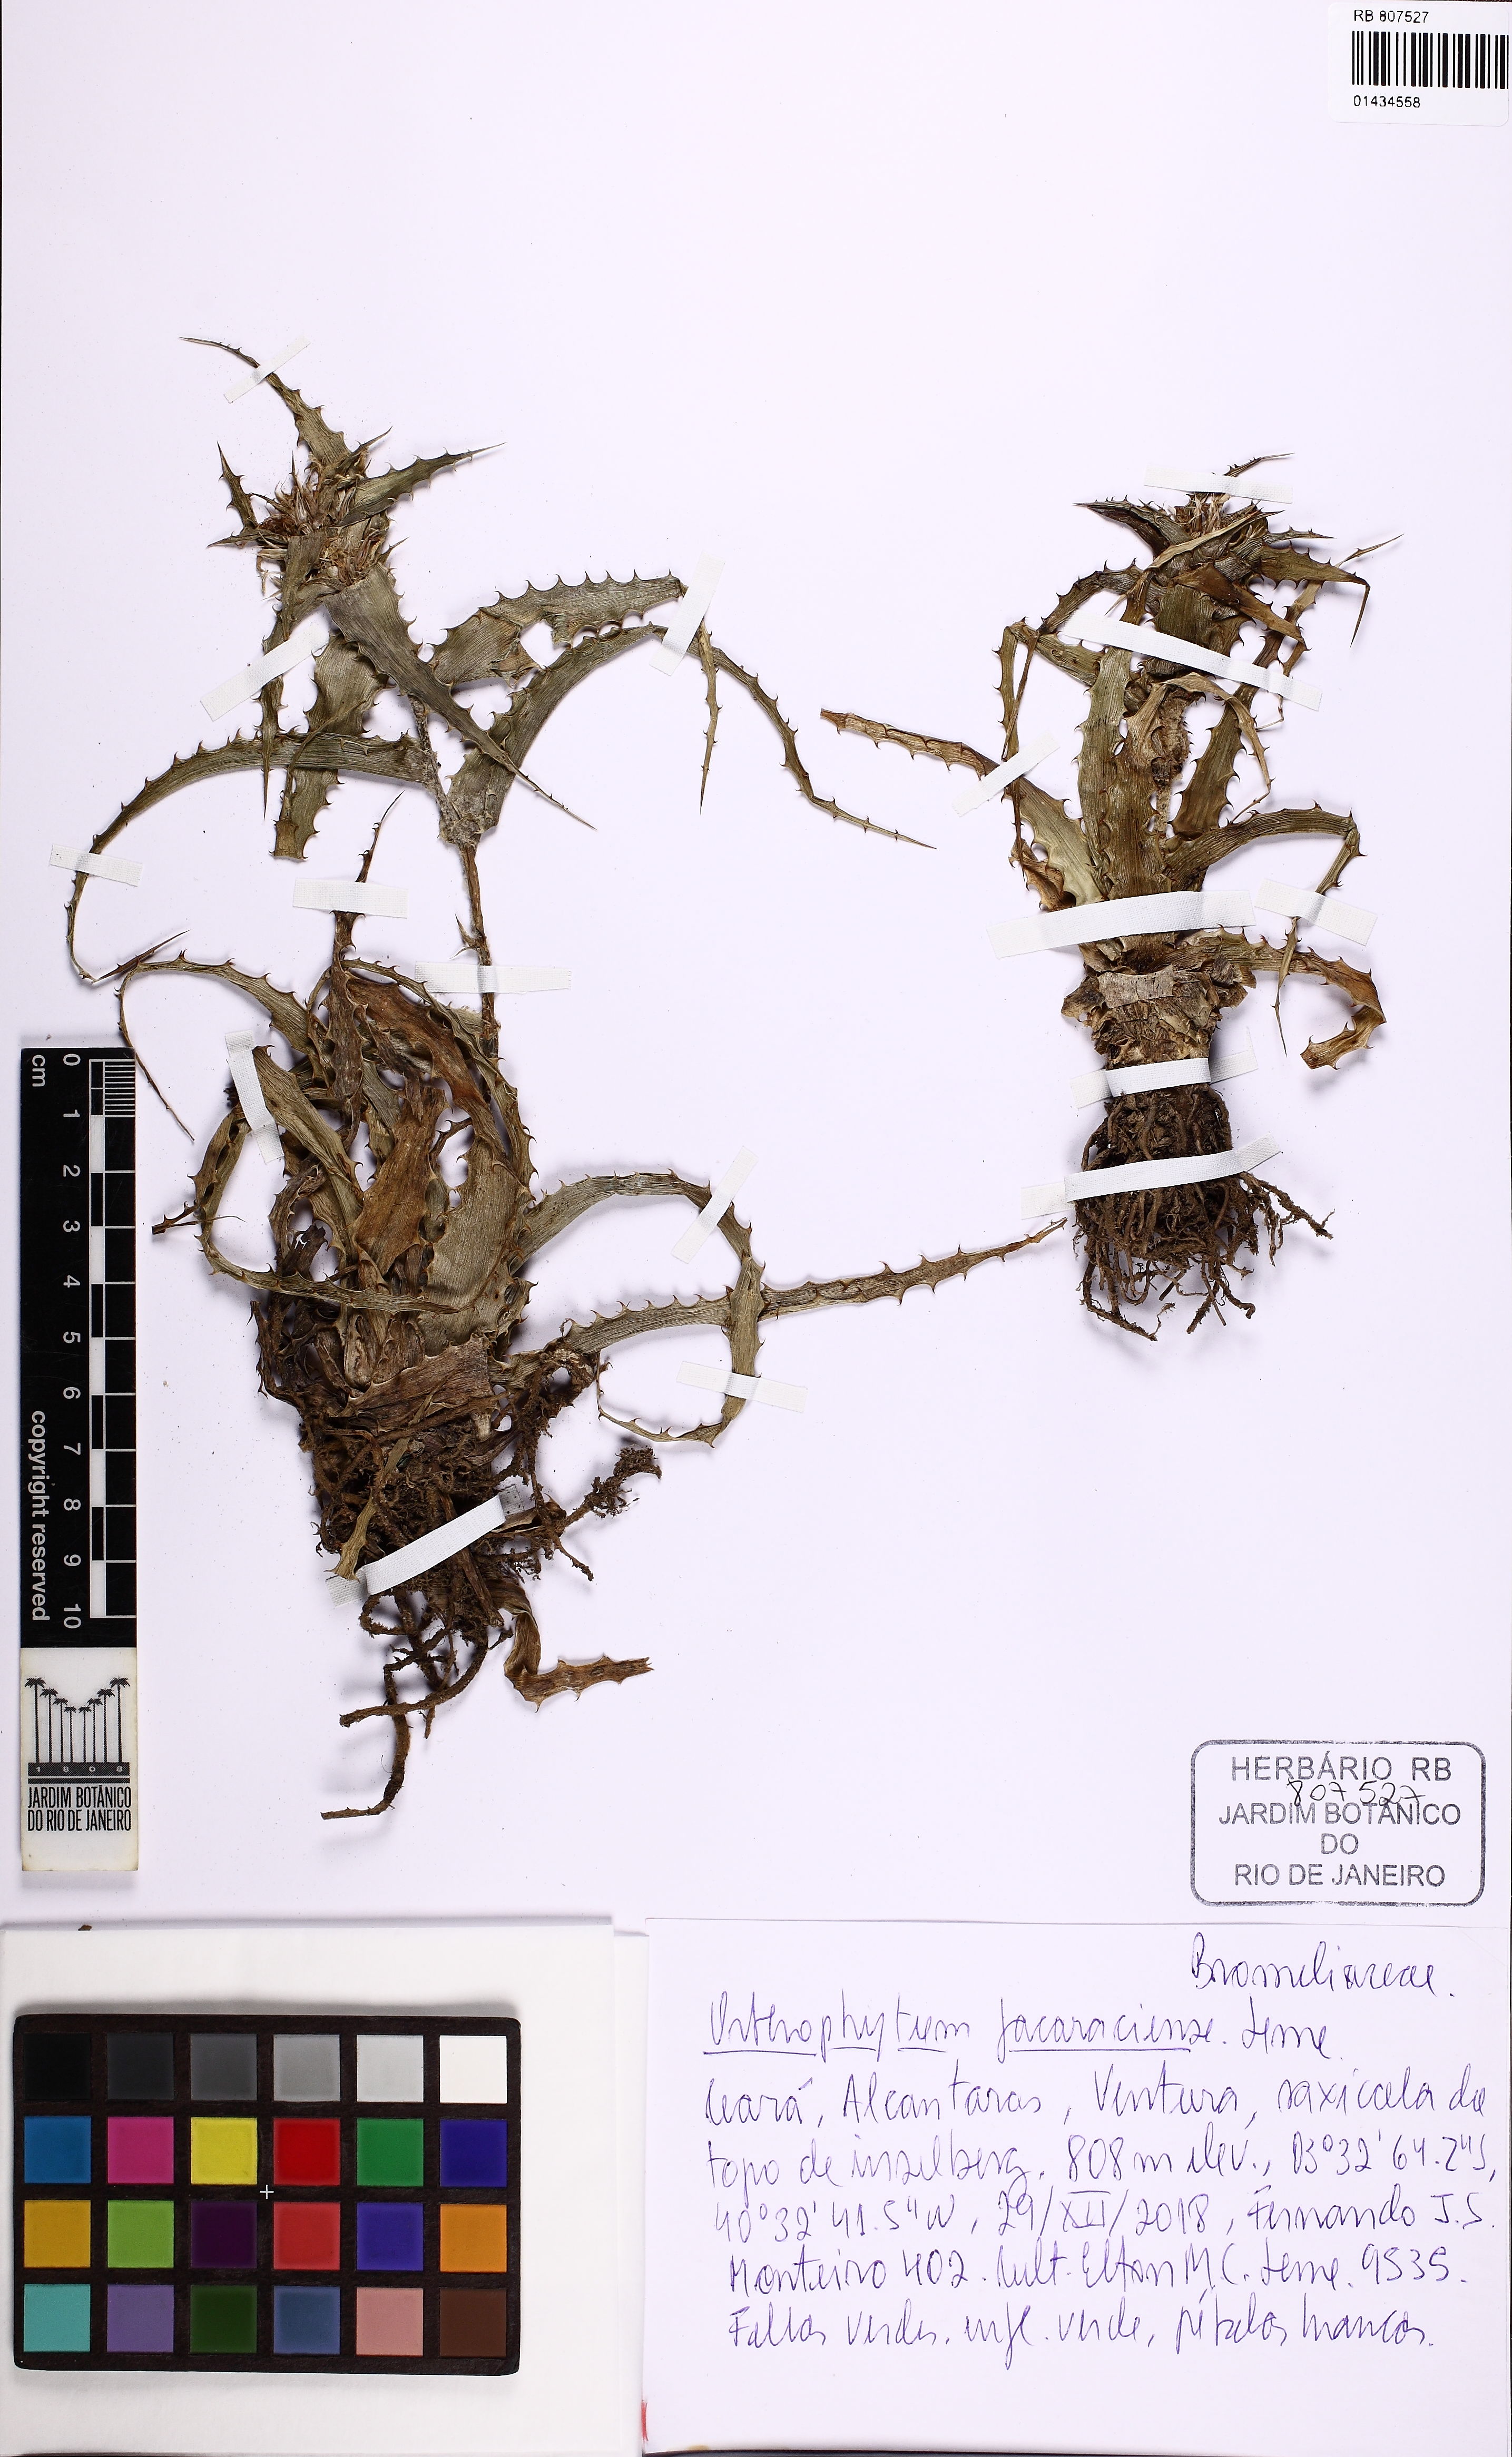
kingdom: Plantae
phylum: Tracheophyta
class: Liliopsida
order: Poales
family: Bromeliaceae
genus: Orthophytum
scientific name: Orthophytum jacaraciense
